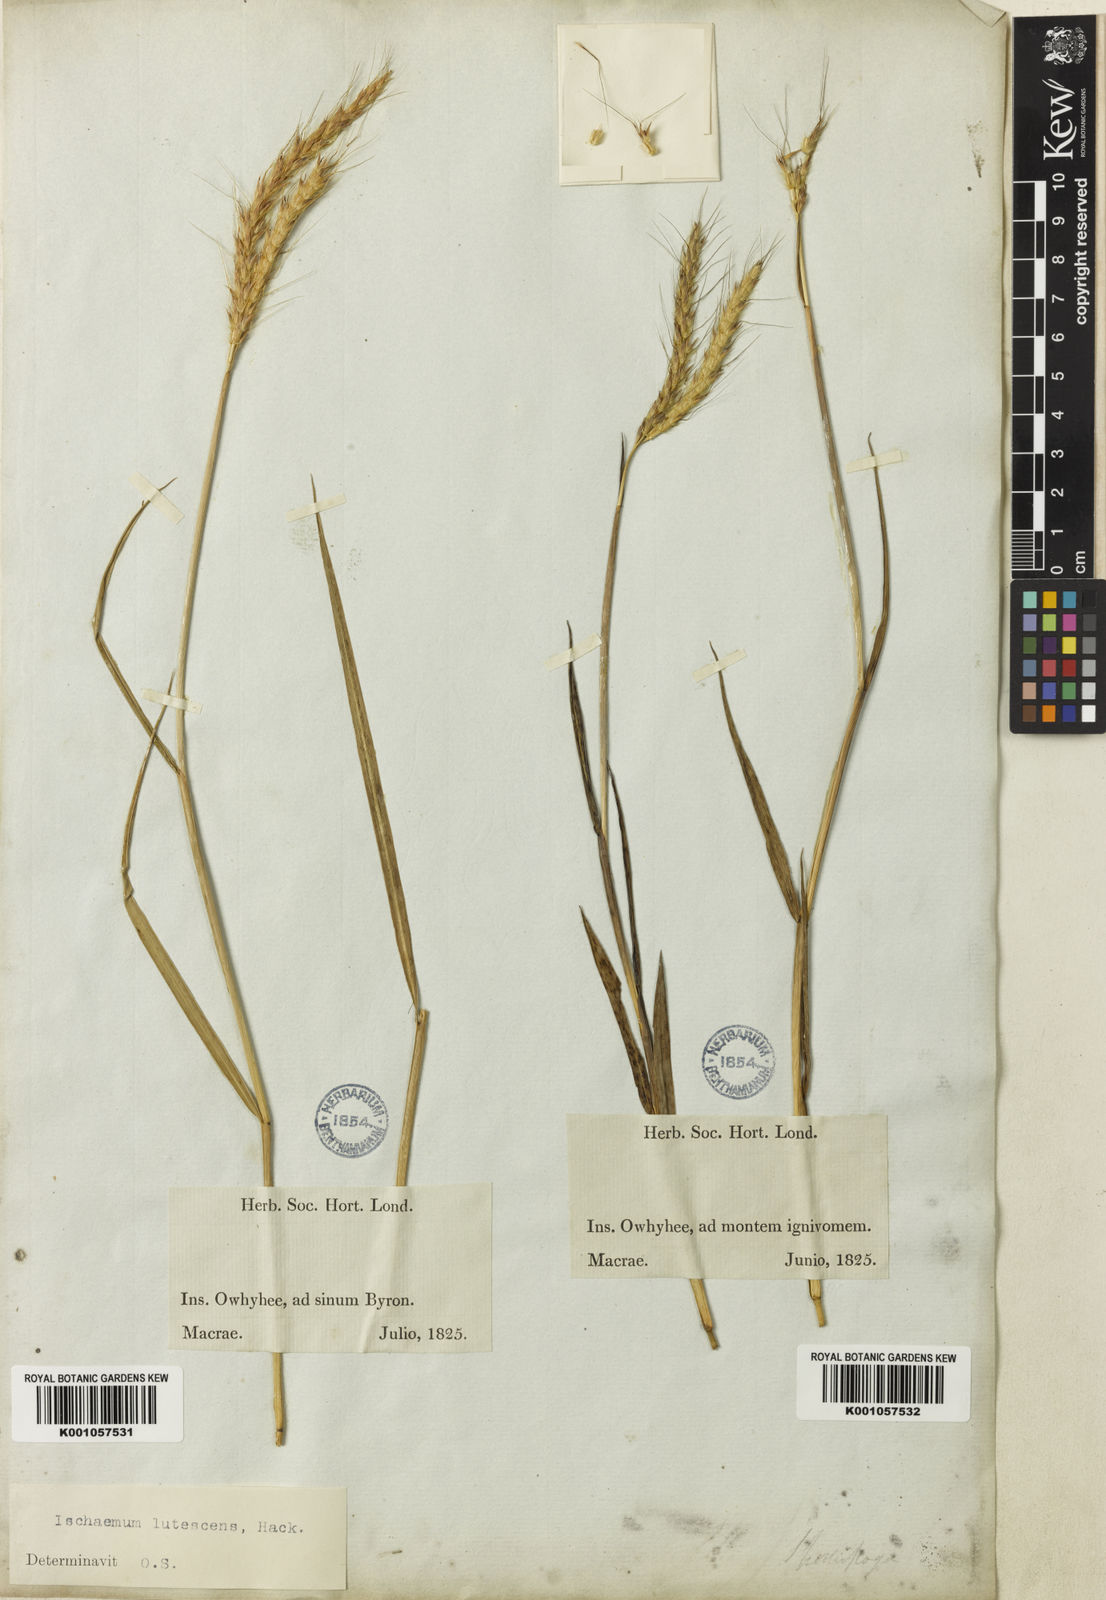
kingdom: Plantae
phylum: Tracheophyta
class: Liliopsida
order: Poales
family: Poaceae
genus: Ischaemum
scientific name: Ischaemum byrone
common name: Hilo ischaemum
